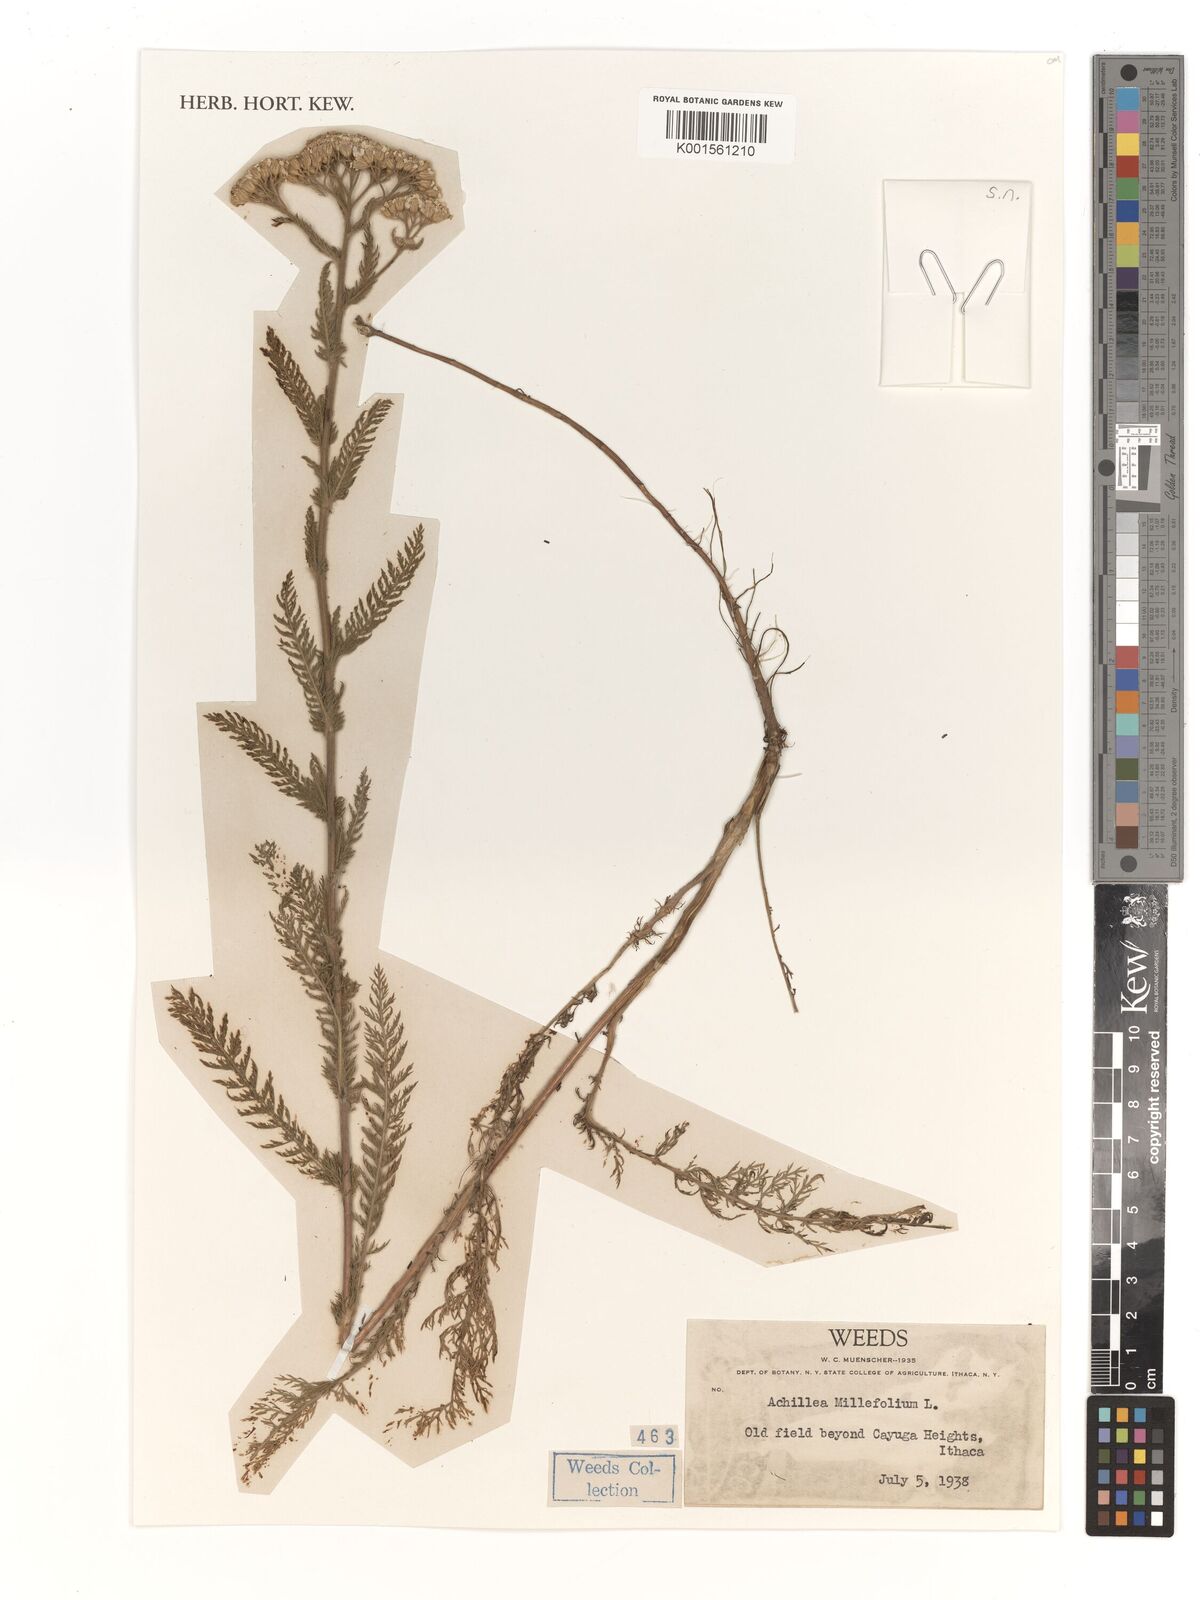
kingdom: Plantae
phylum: Tracheophyta
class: Magnoliopsida
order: Asterales
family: Asteraceae
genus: Achillea
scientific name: Achillea millefolium
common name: Yarrow
